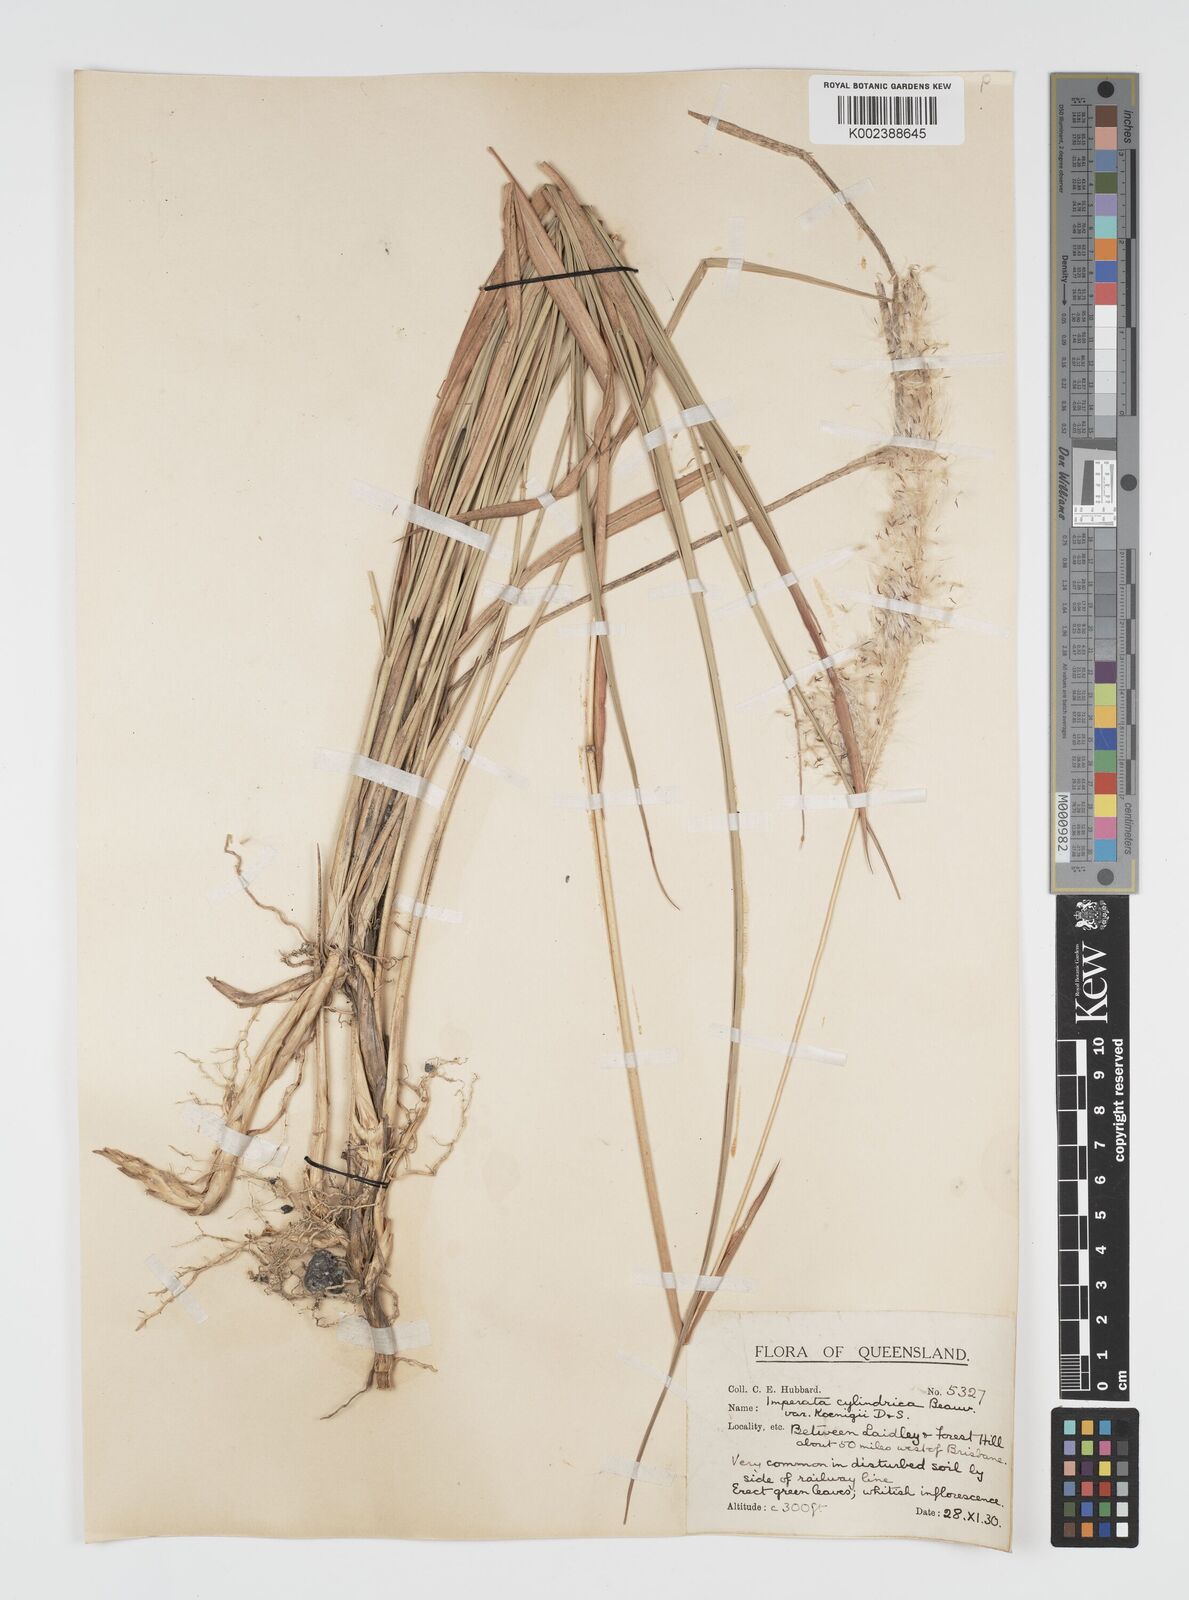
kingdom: Plantae
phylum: Tracheophyta
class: Liliopsida
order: Poales
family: Poaceae
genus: Imperata
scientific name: Imperata cylindrica
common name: Cogongrass
